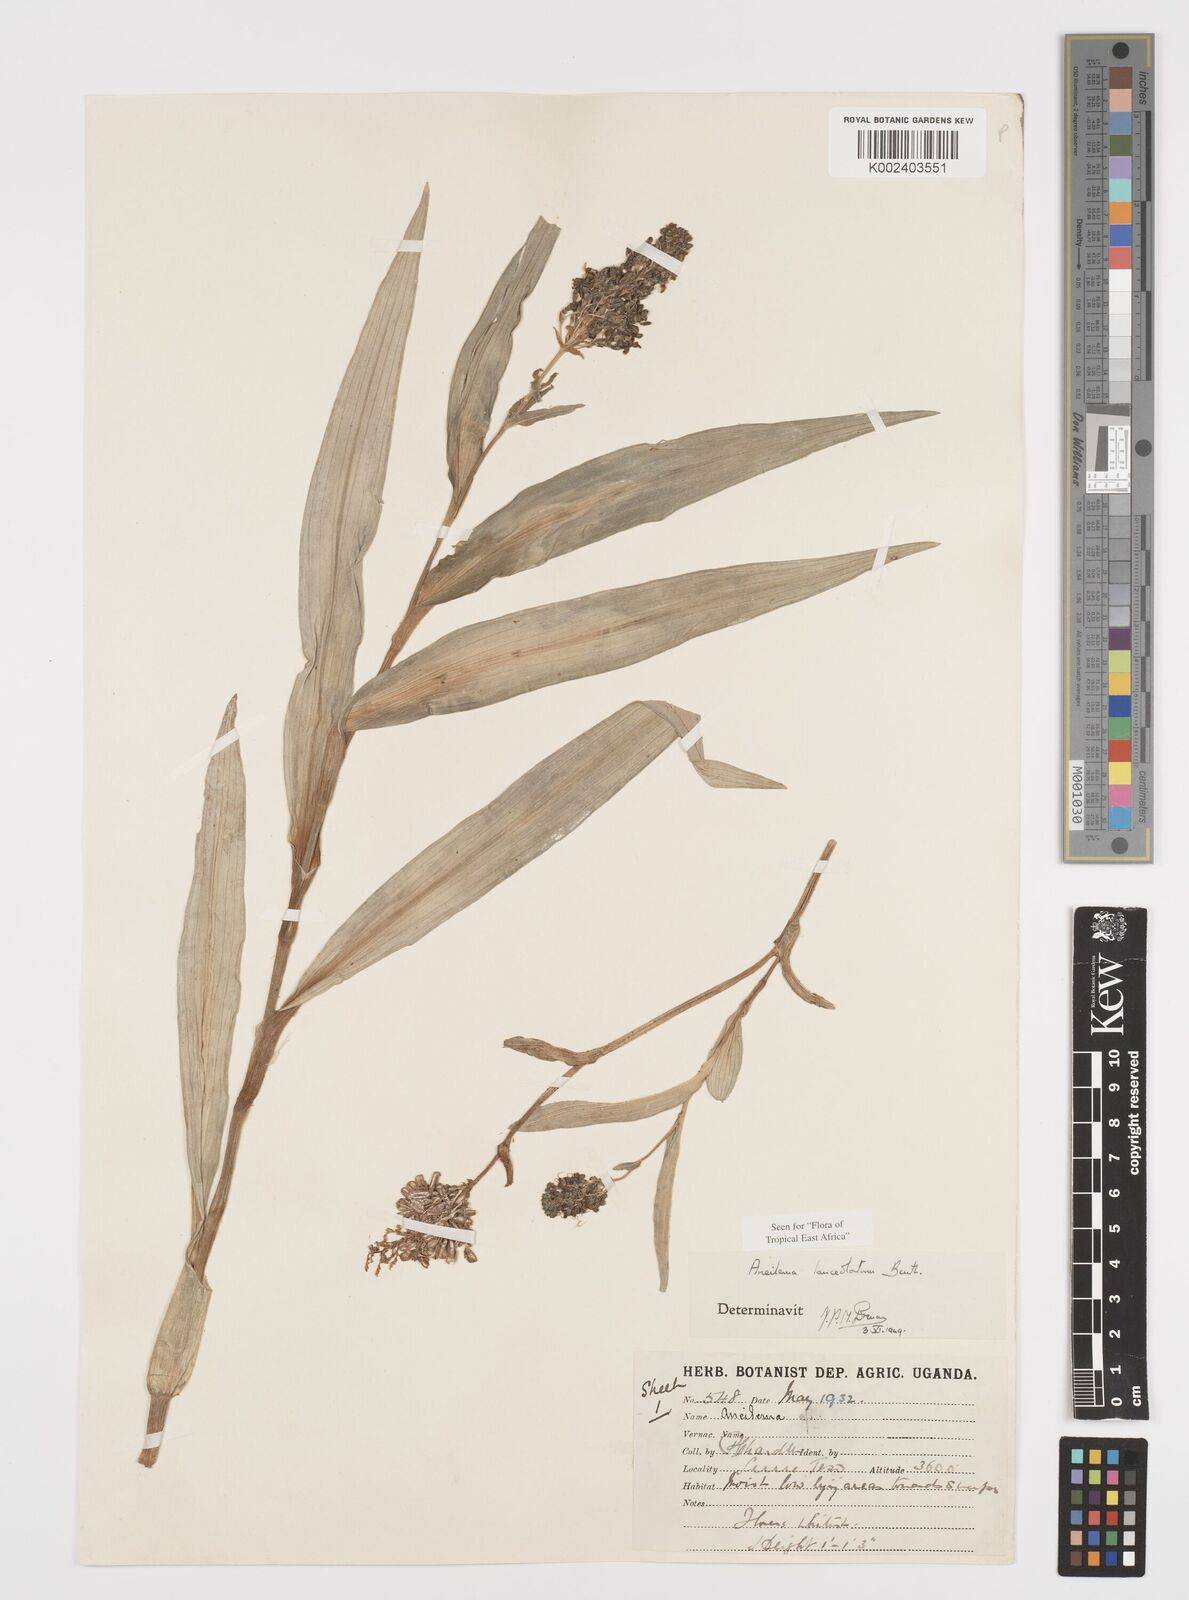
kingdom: Plantae
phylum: Tracheophyta
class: Liliopsida
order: Commelinales
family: Commelinaceae
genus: Aneilema
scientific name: Aneilema lanceolatum
